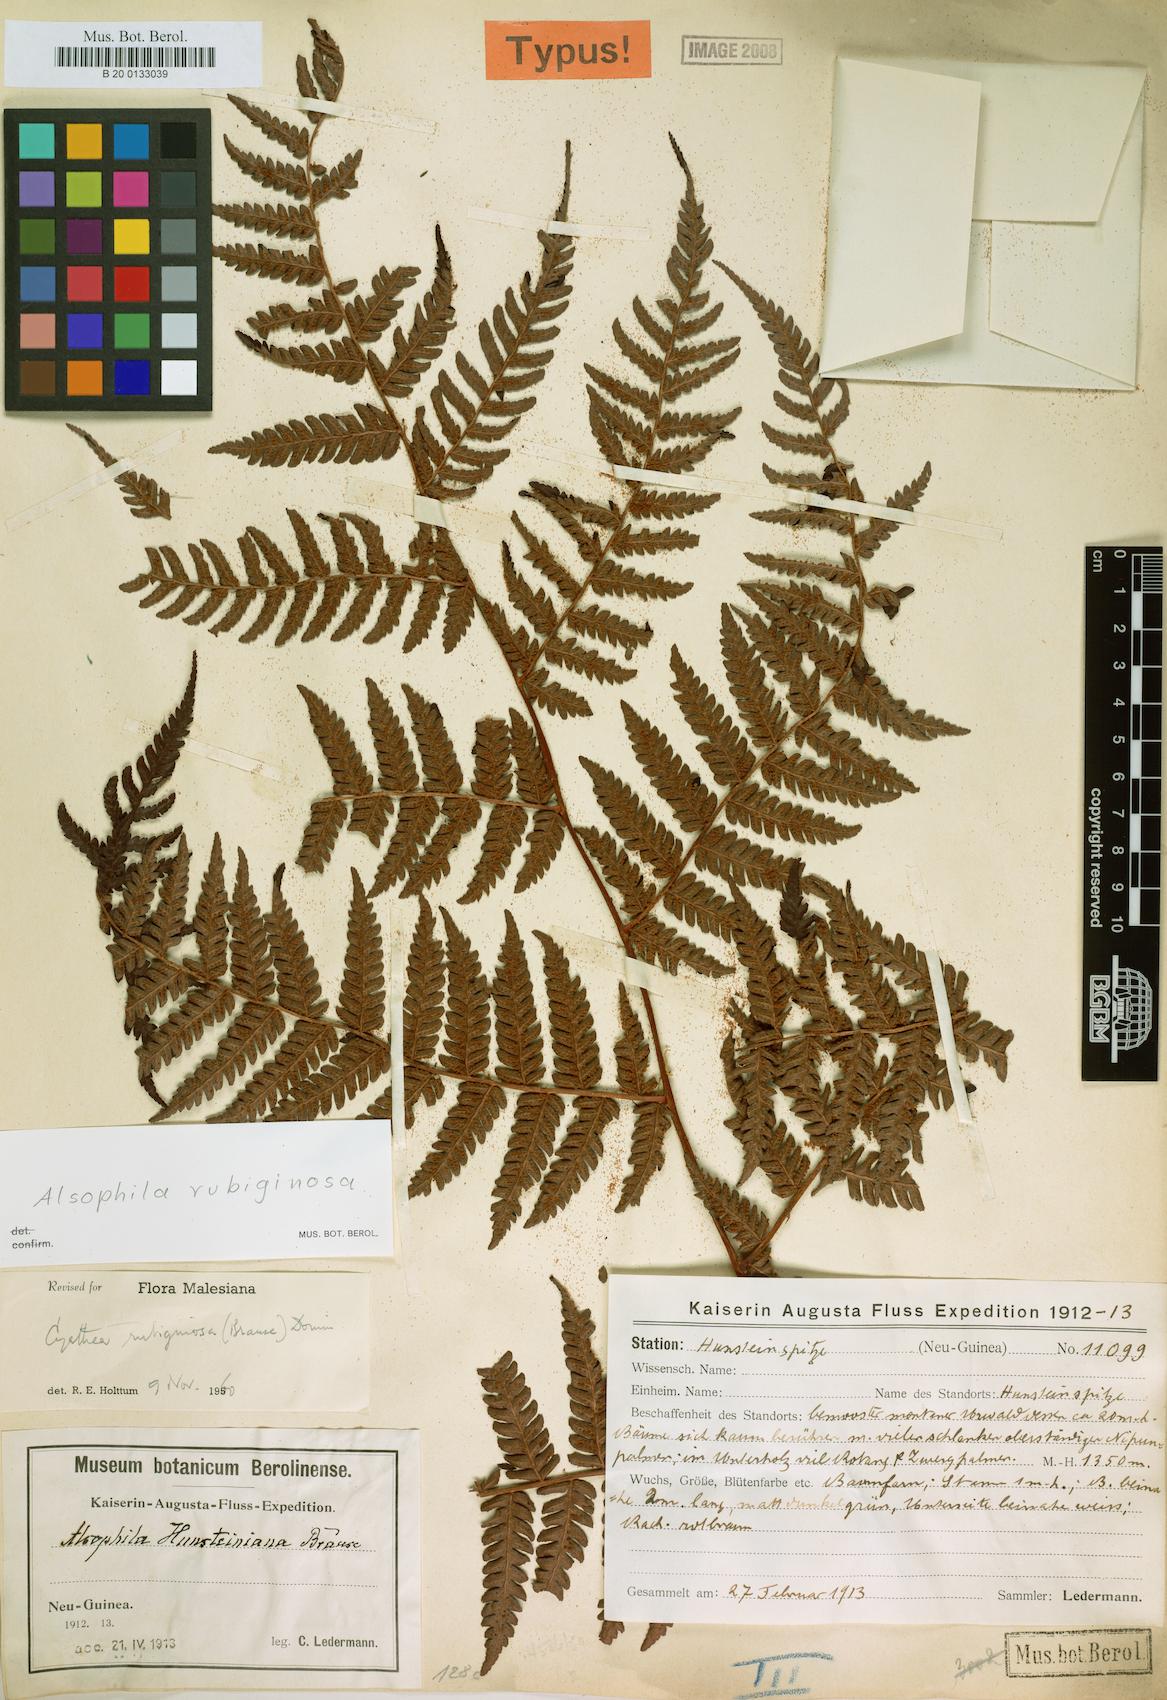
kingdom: Plantae
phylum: Tracheophyta
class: Polypodiopsida
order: Cyatheales
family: Cyatheaceae
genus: Alsophila
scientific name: Alsophila rubiginosa
